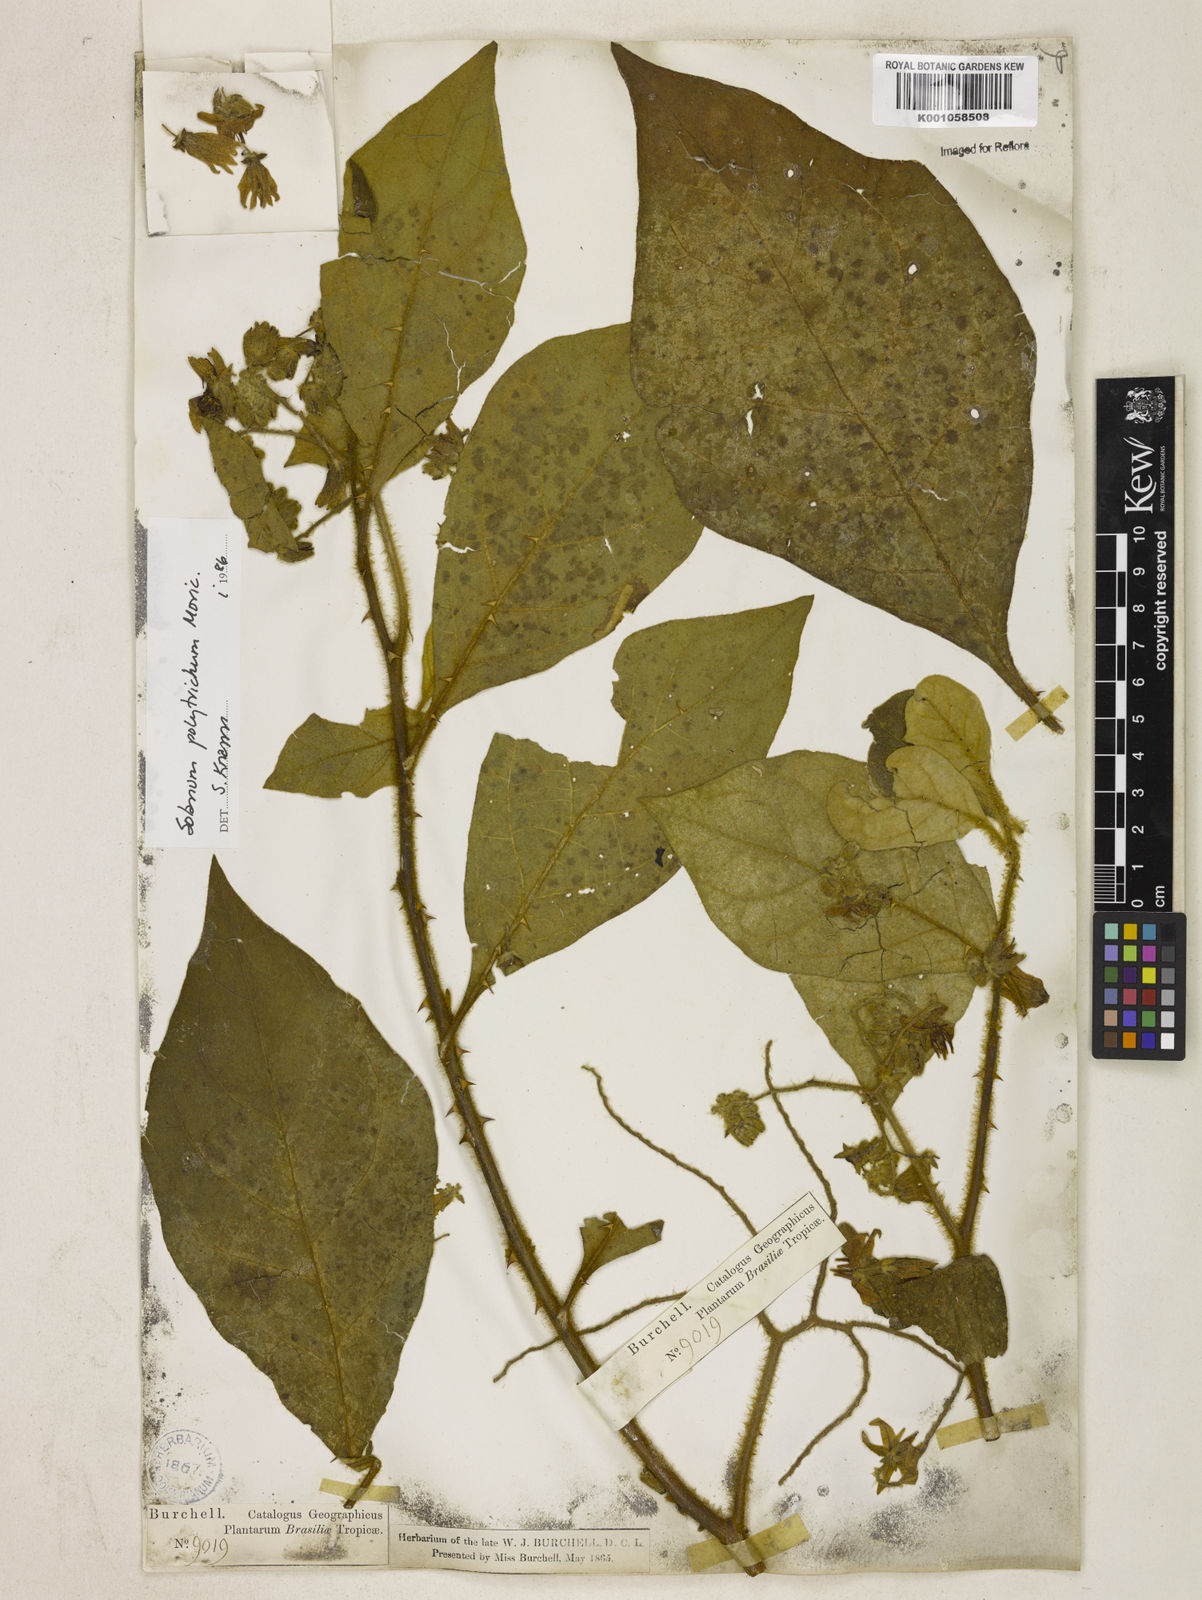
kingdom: Plantae
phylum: Tracheophyta
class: Magnoliopsida
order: Solanales
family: Solanaceae
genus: Solanum
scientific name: Solanum polytrichum
